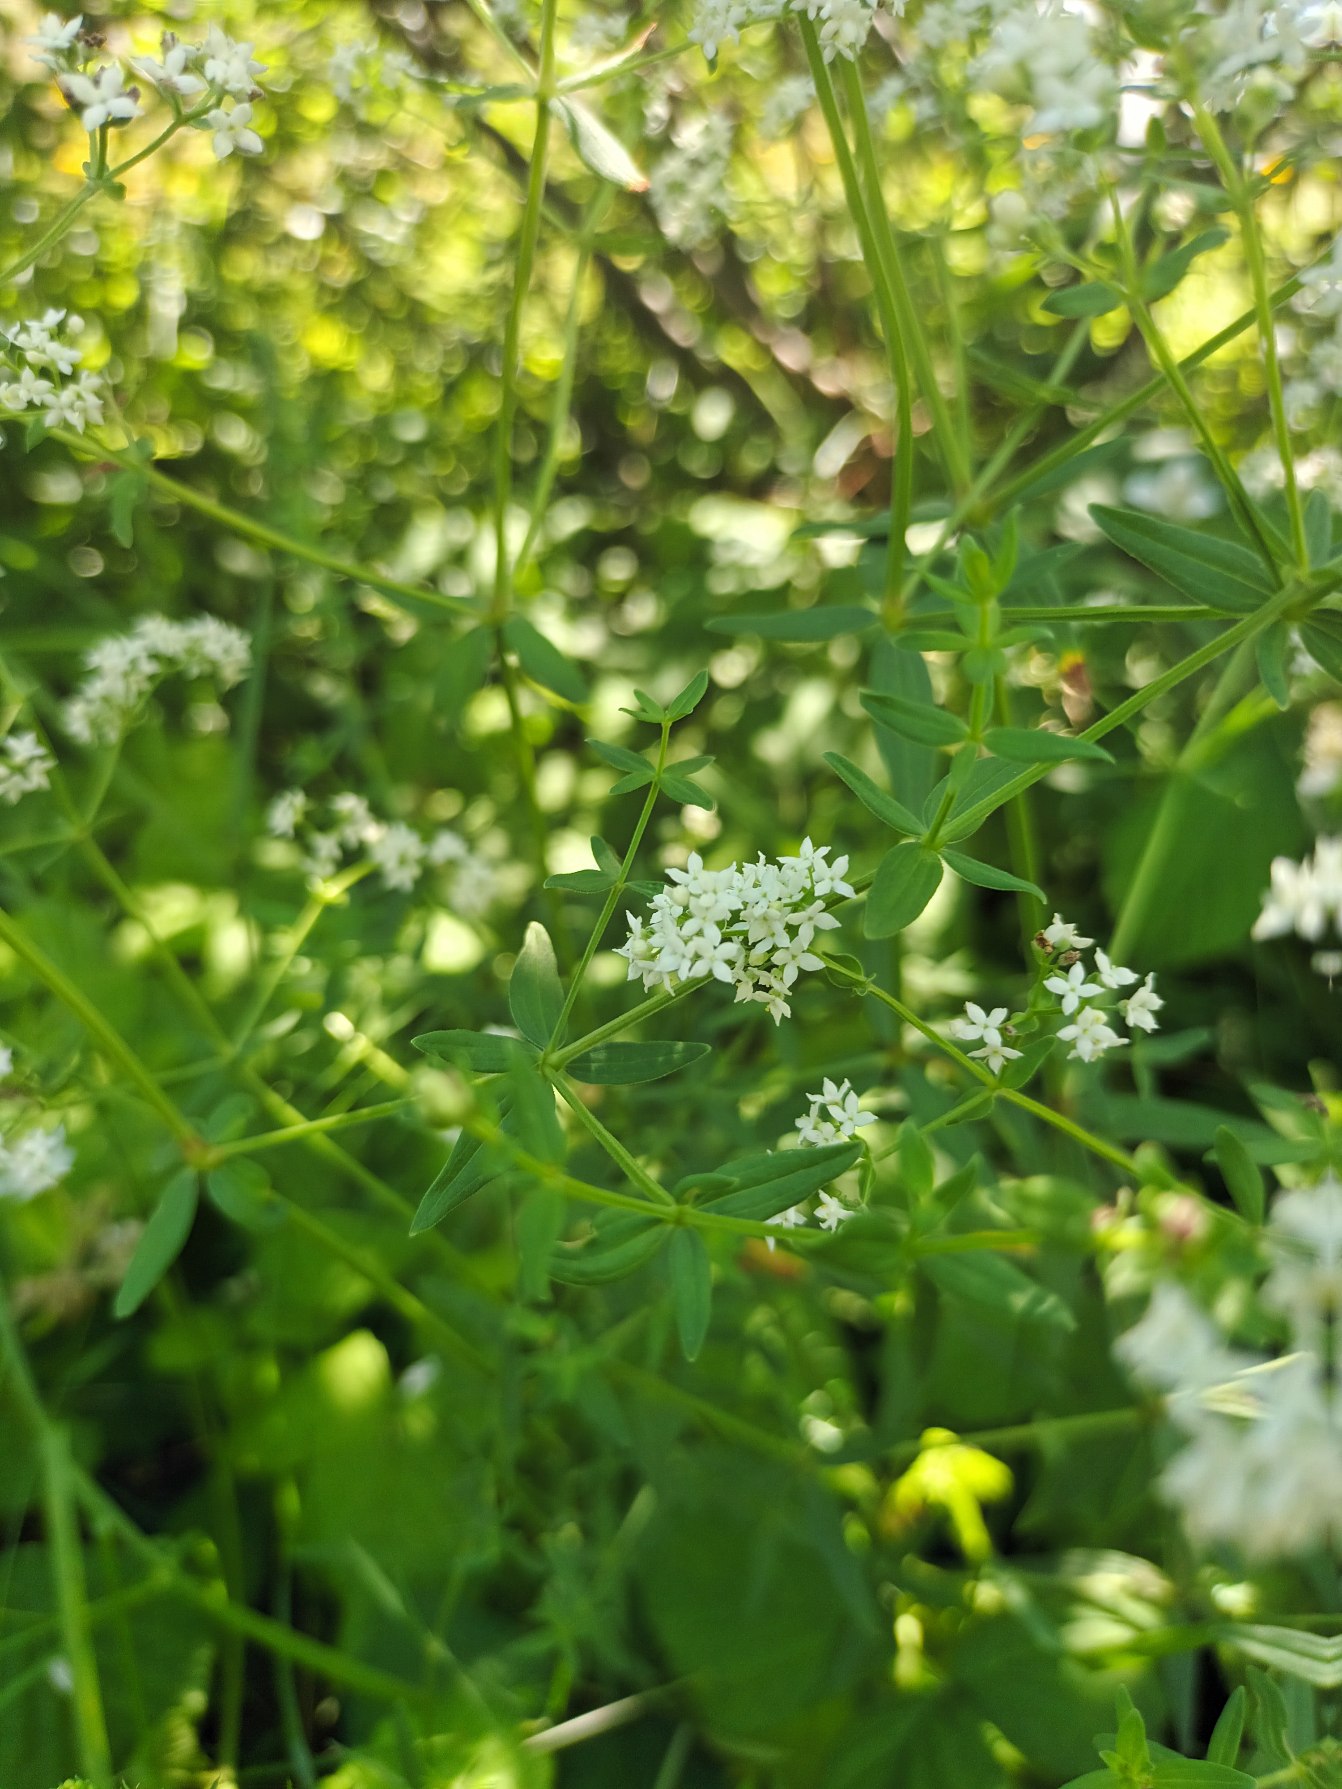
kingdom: Plantae
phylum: Tracheophyta
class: Magnoliopsida
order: Gentianales
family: Rubiaceae
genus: Galium
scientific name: Galium boreale
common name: Trenervet snerre
